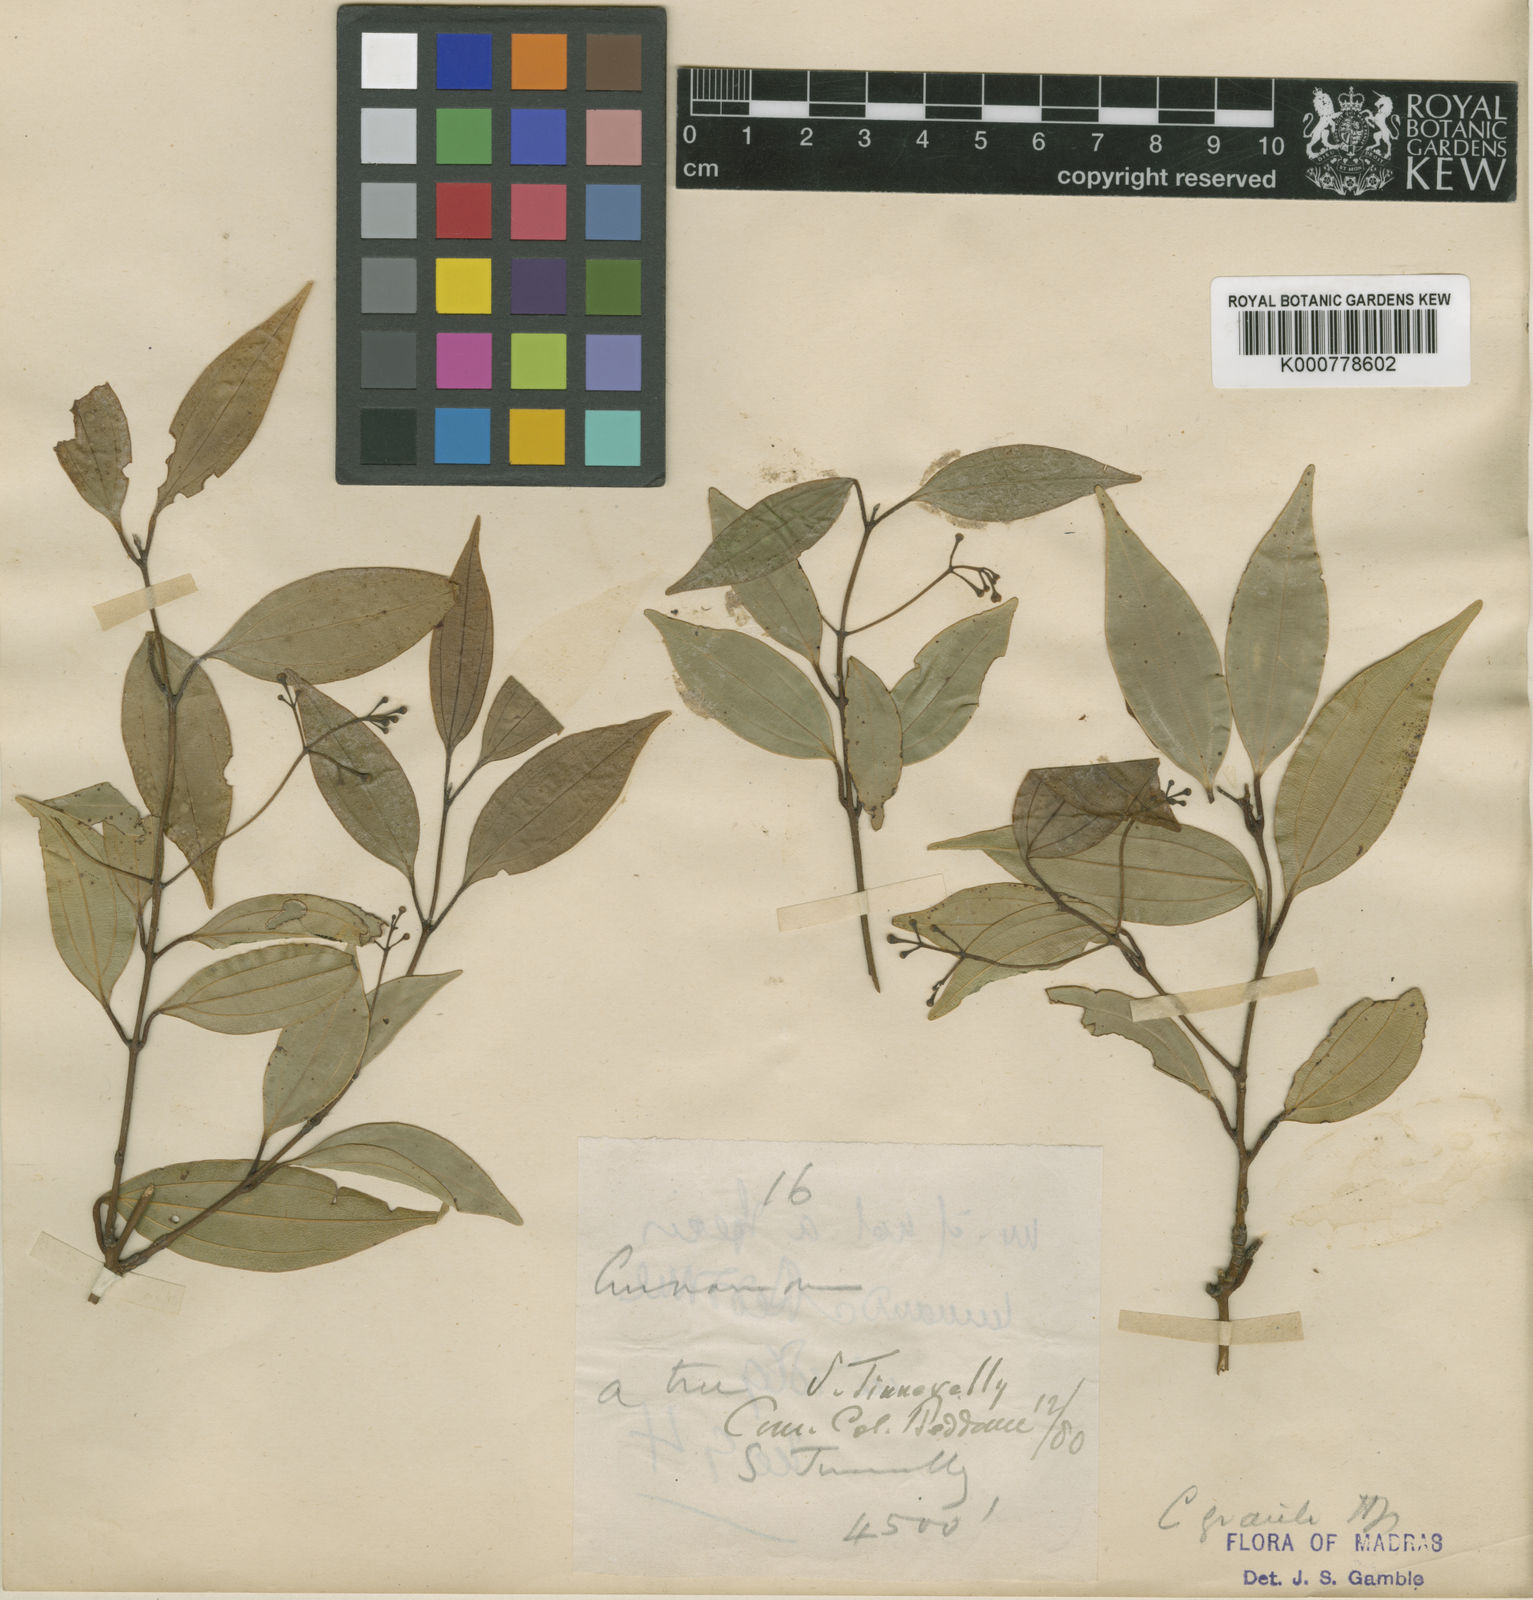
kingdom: Plantae
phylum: Tracheophyta
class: Magnoliopsida
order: Laurales
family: Lauraceae
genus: Cinnamomum
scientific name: Cinnamomum filipedicellatum
